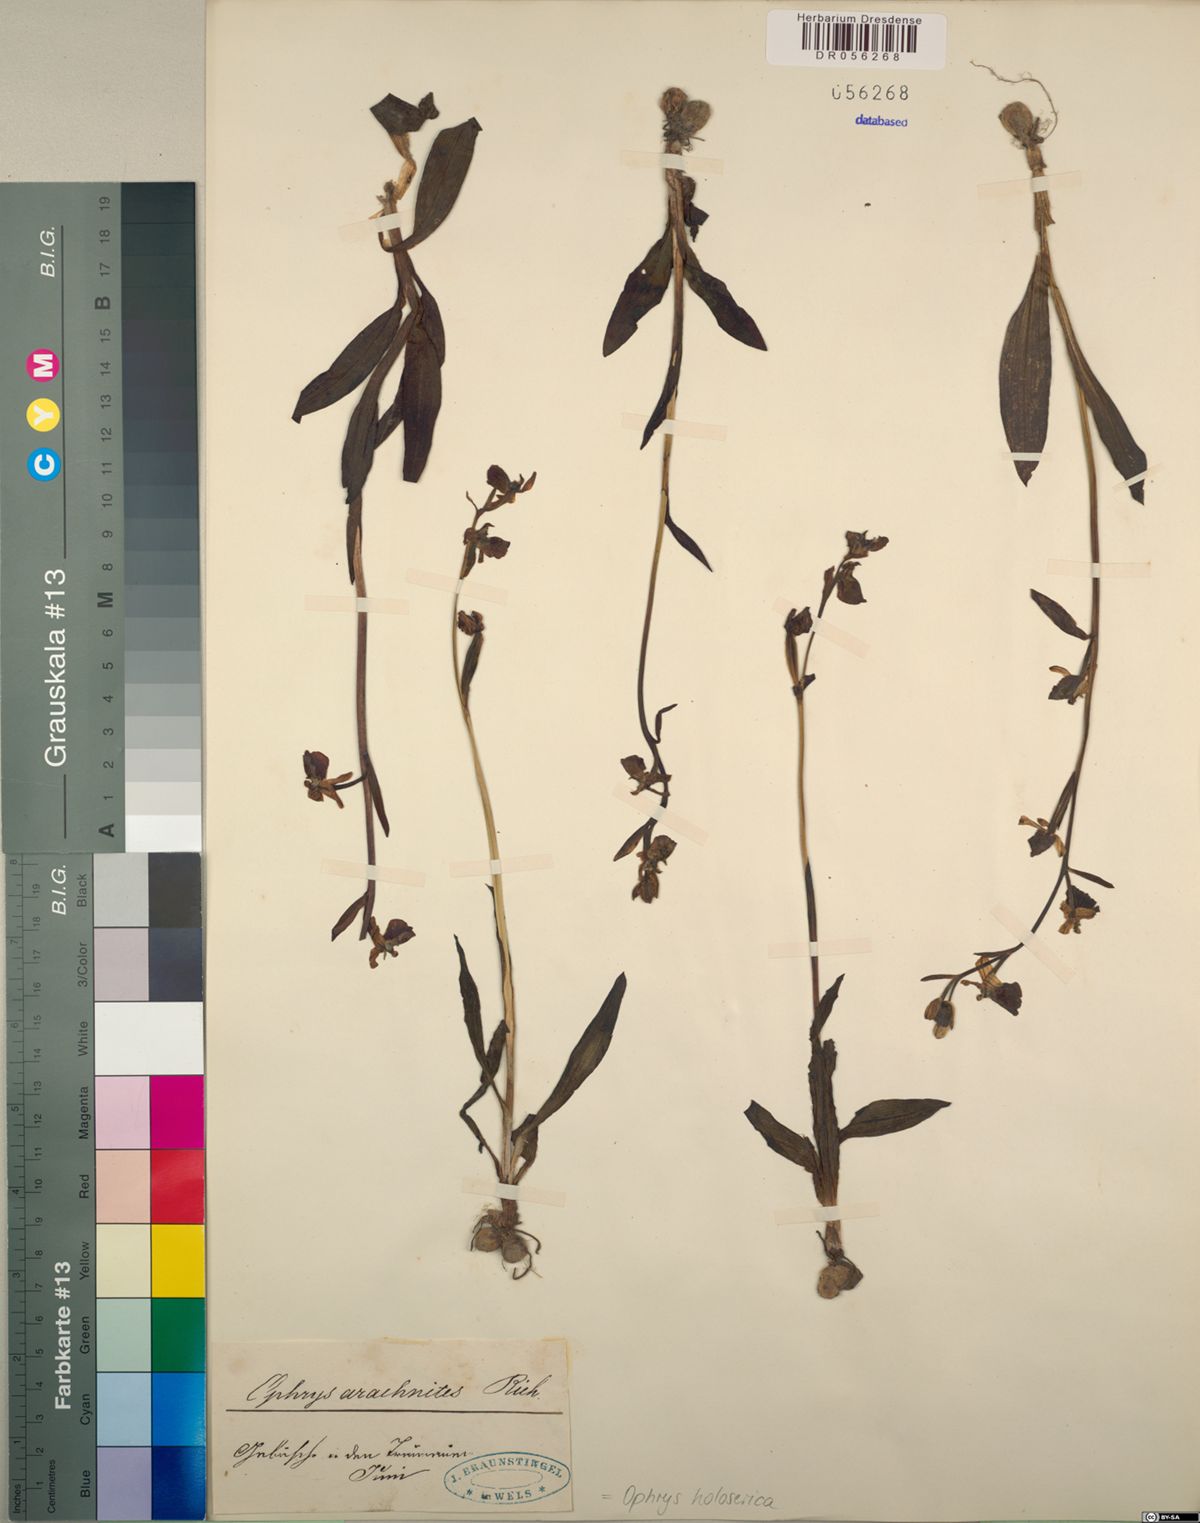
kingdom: Plantae
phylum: Tracheophyta
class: Liliopsida
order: Asparagales
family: Orchidaceae
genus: Ophrys
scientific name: Ophrys holosericea
